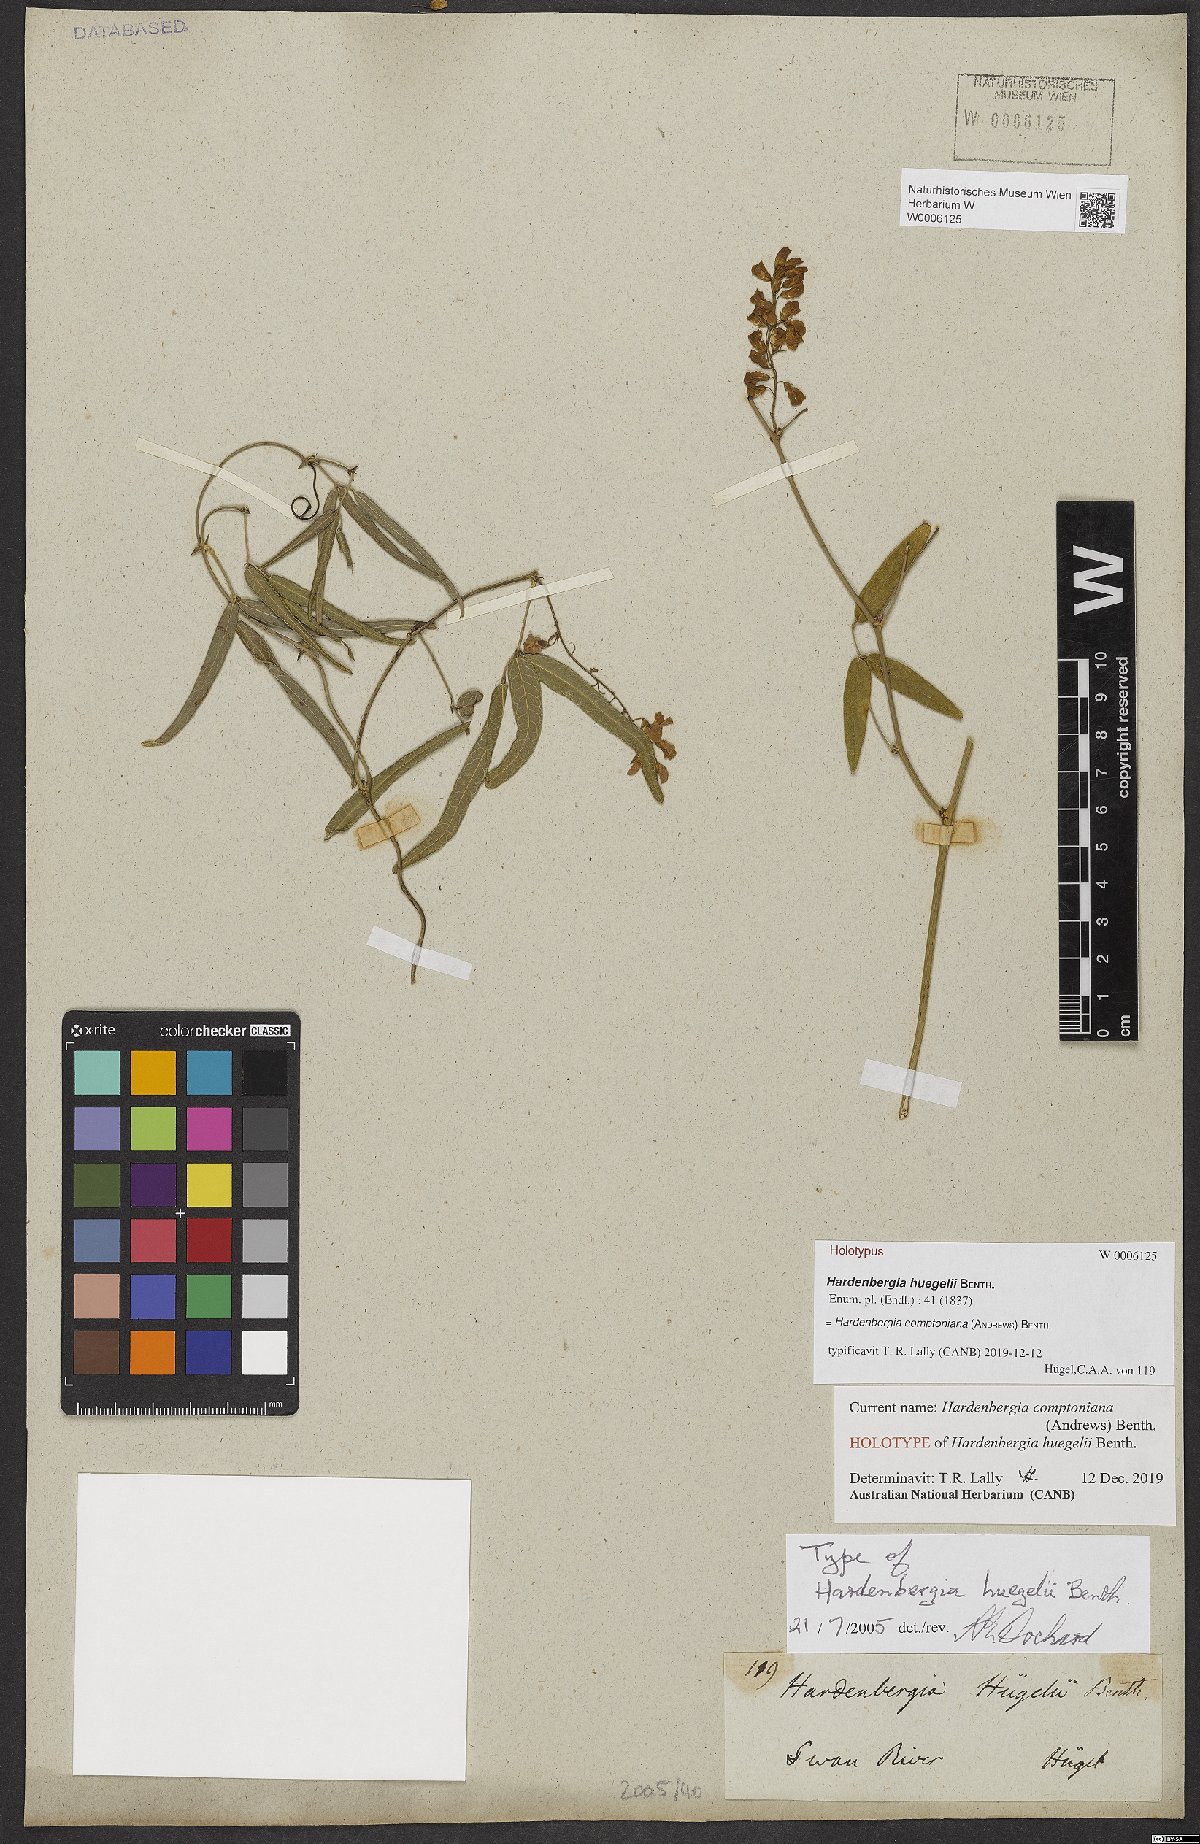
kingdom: Plantae
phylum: Tracheophyta
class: Magnoliopsida
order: Fabales
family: Fabaceae
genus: Hardenbergia
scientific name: Hardenbergia comptoniana
